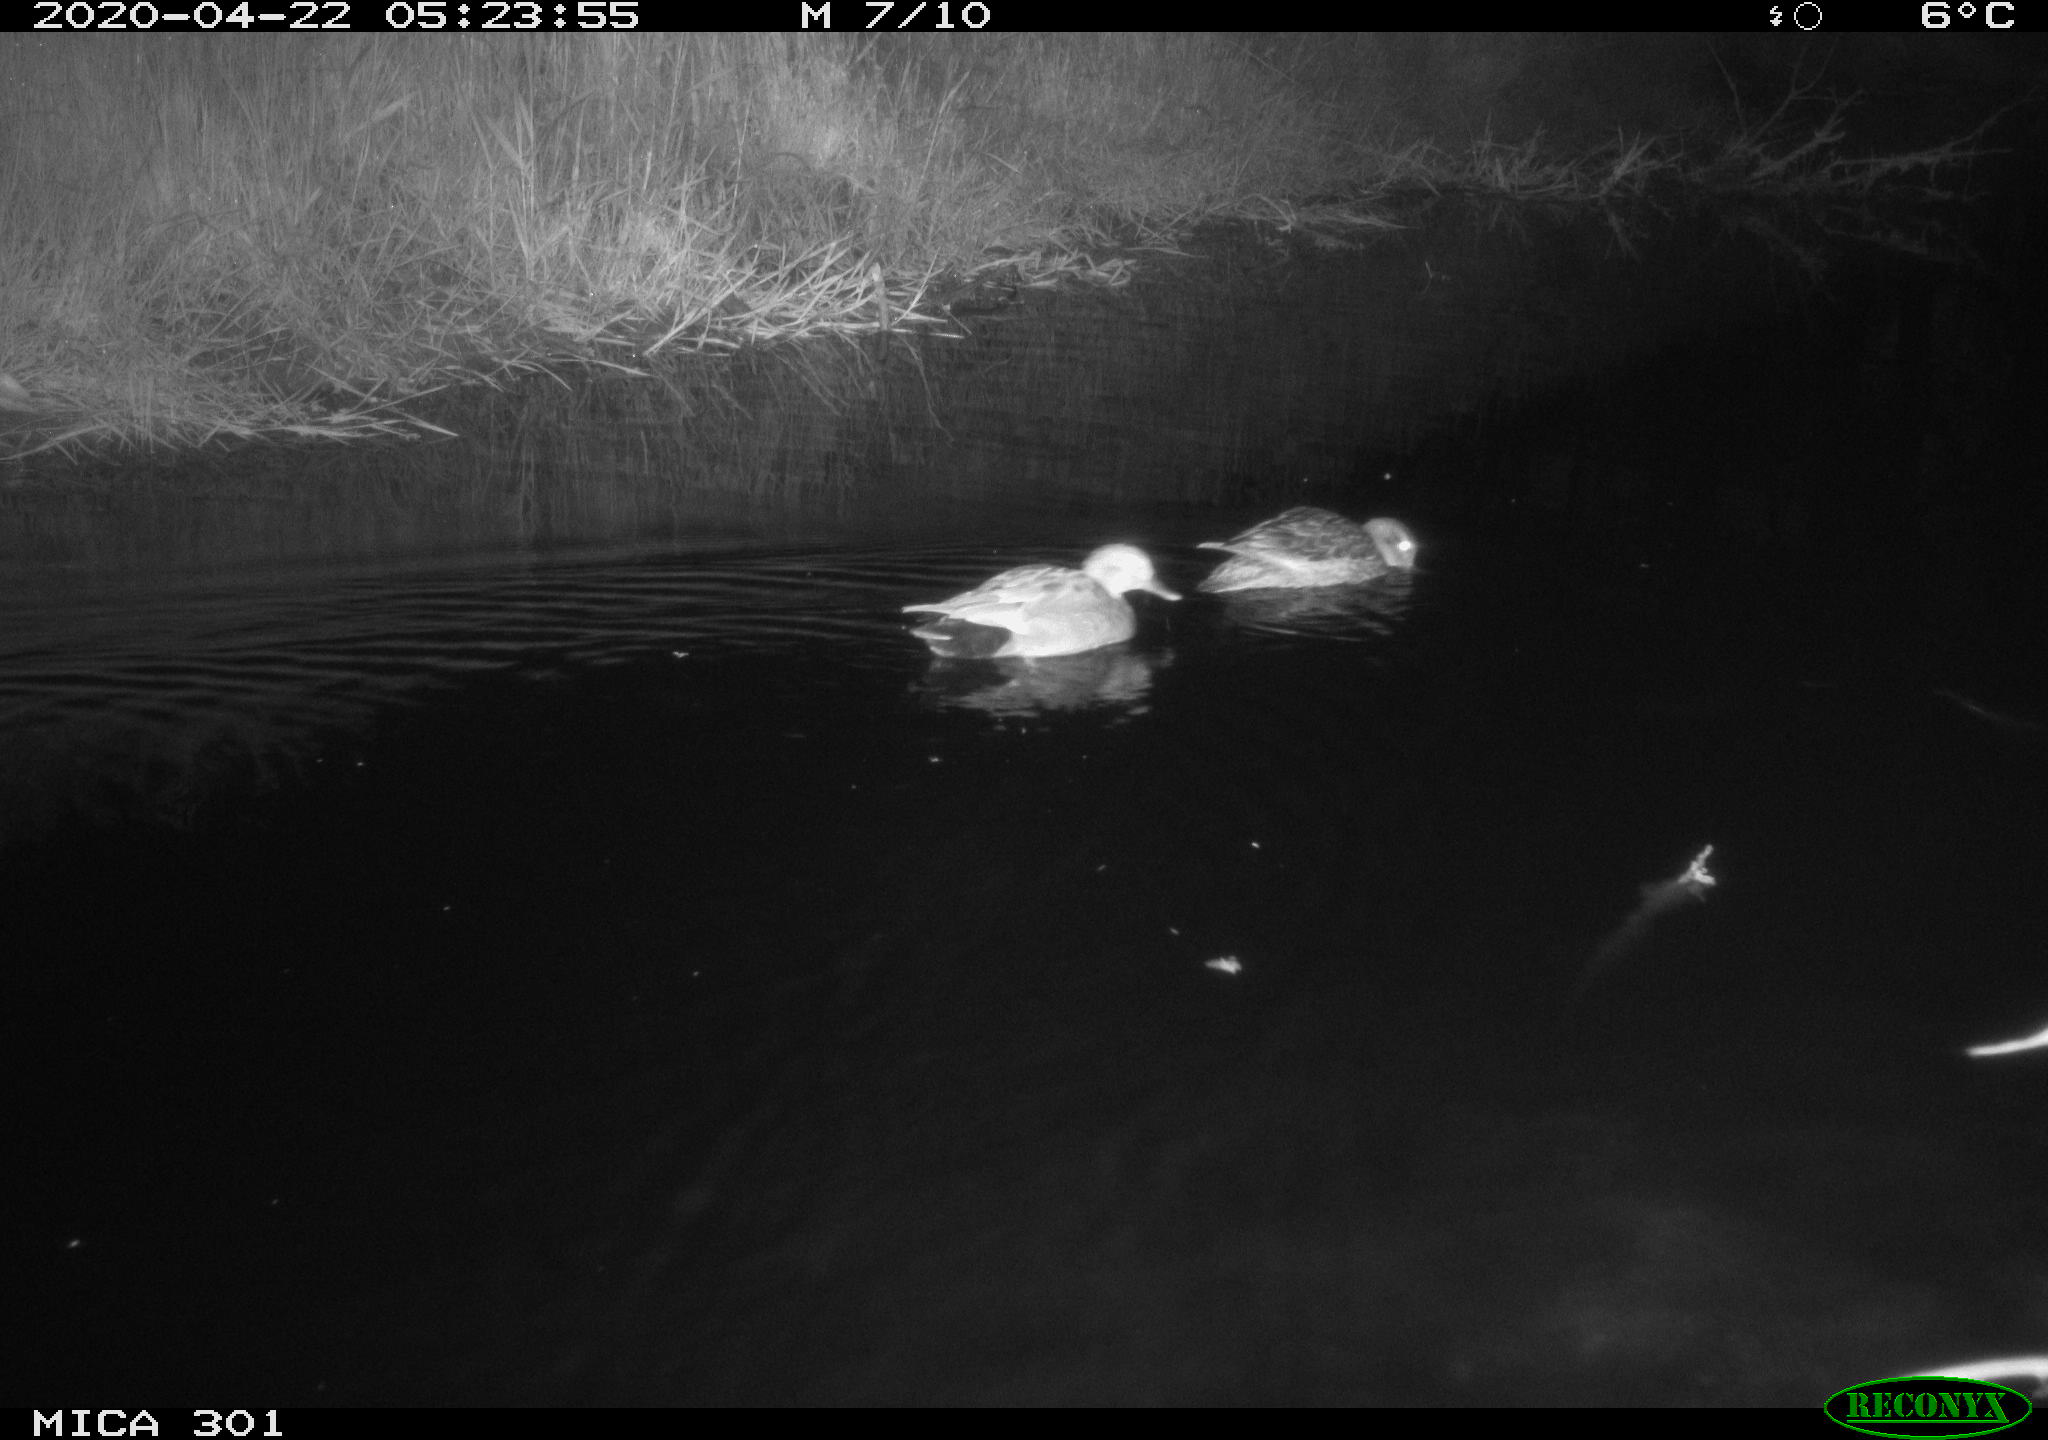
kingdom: Animalia
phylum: Chordata
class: Aves
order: Anseriformes
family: Anatidae
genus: Mareca
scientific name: Mareca strepera
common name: Gadwall
